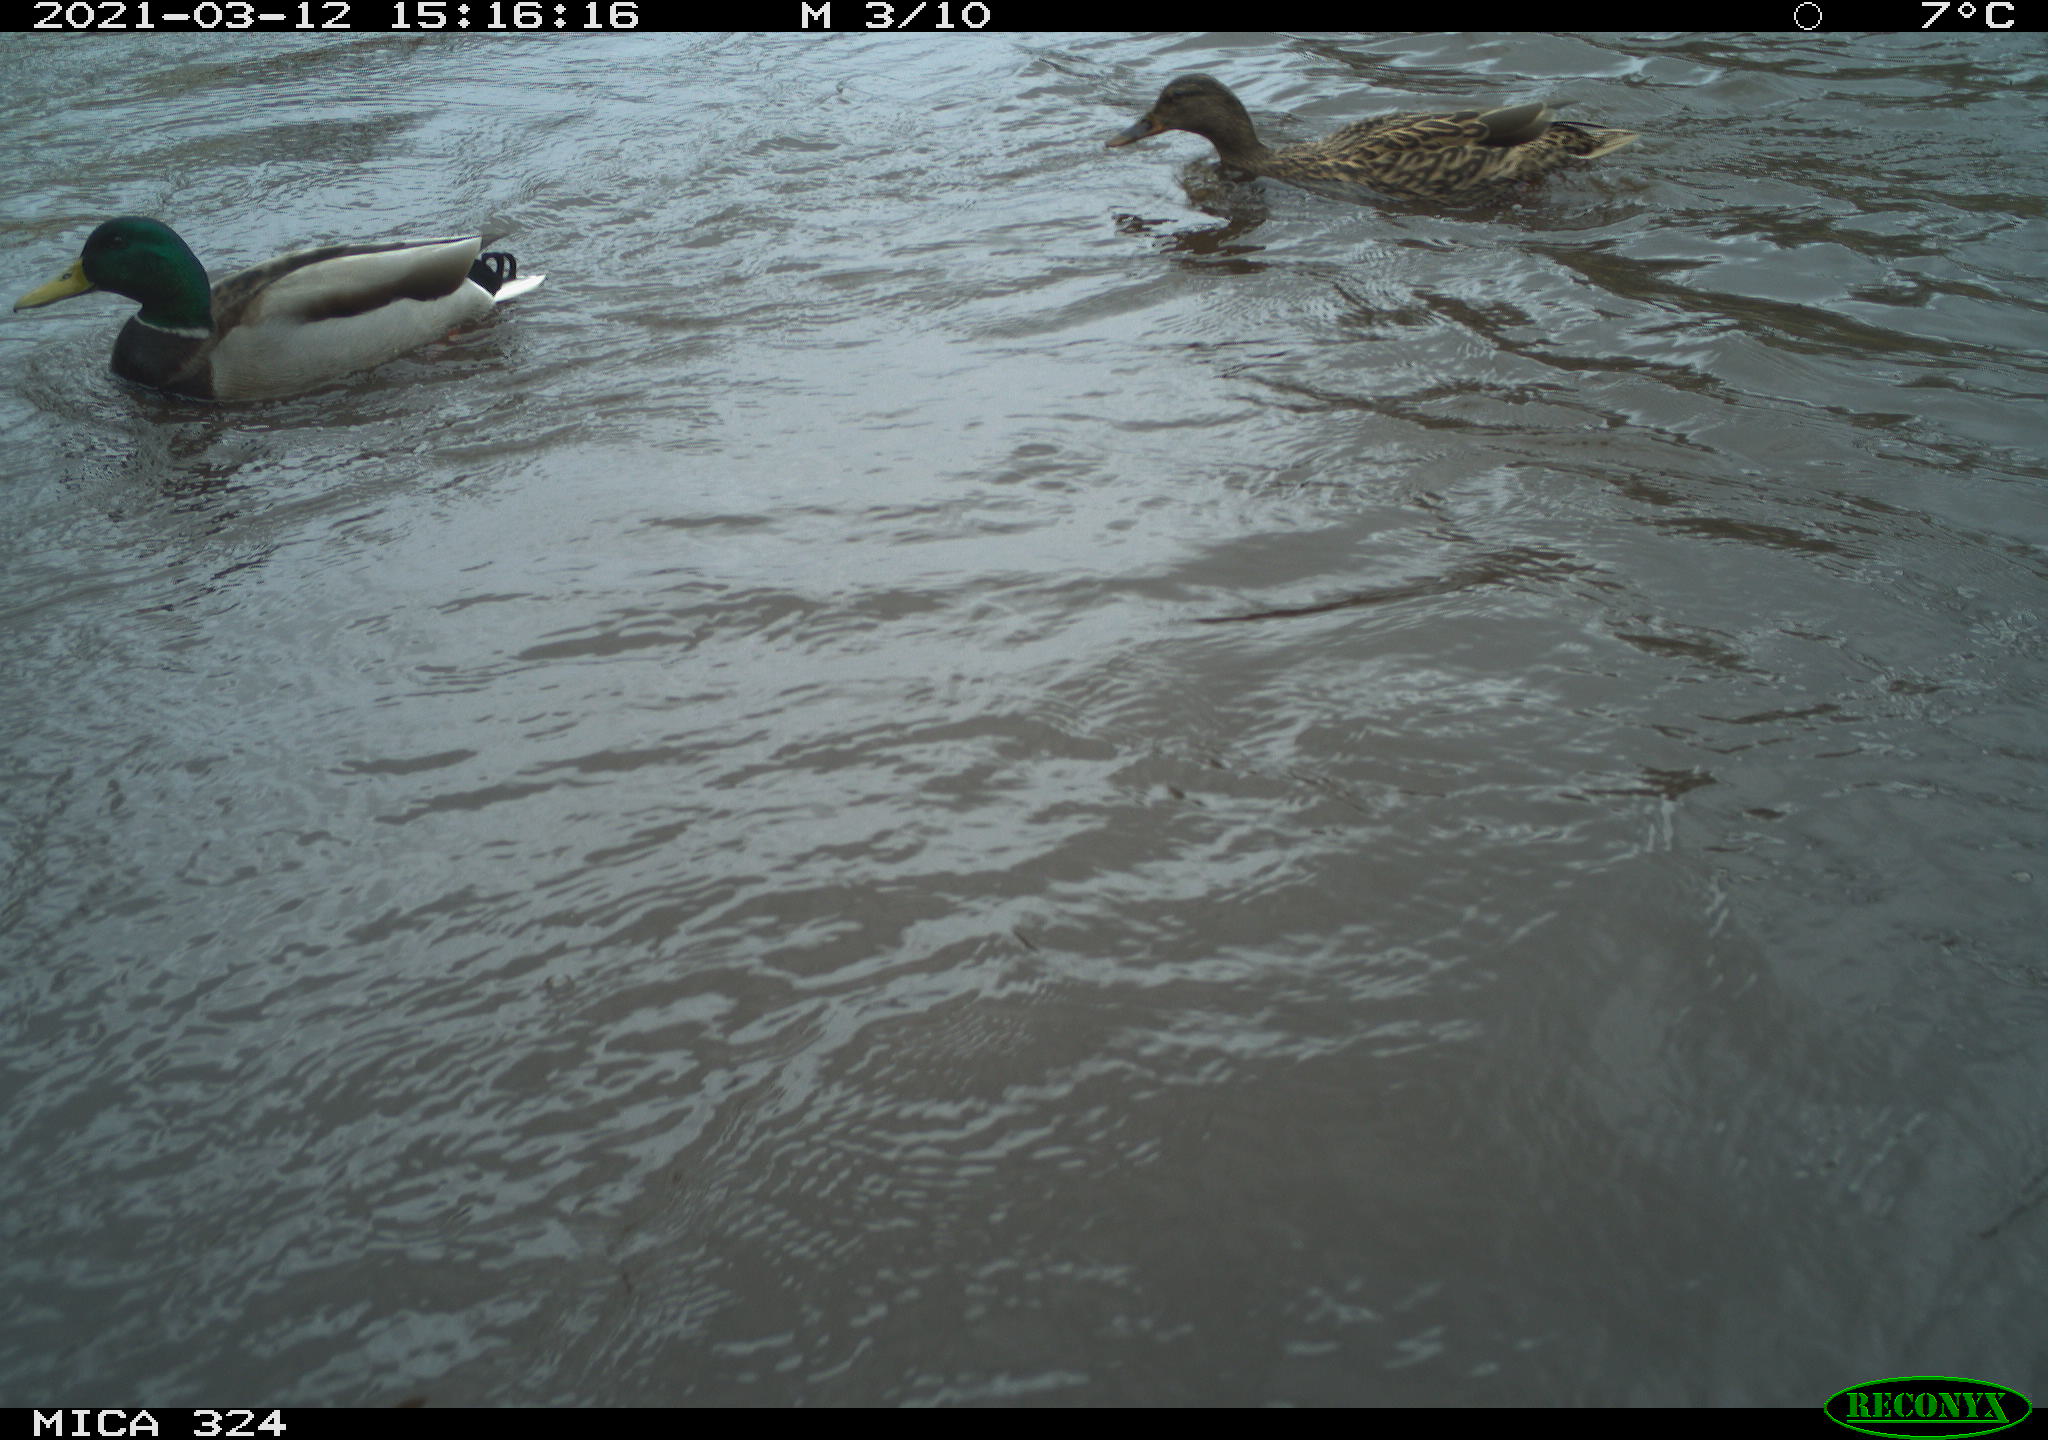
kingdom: Animalia
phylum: Chordata
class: Aves
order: Anseriformes
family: Anatidae
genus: Anas
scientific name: Anas platyrhynchos
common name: Mallard
